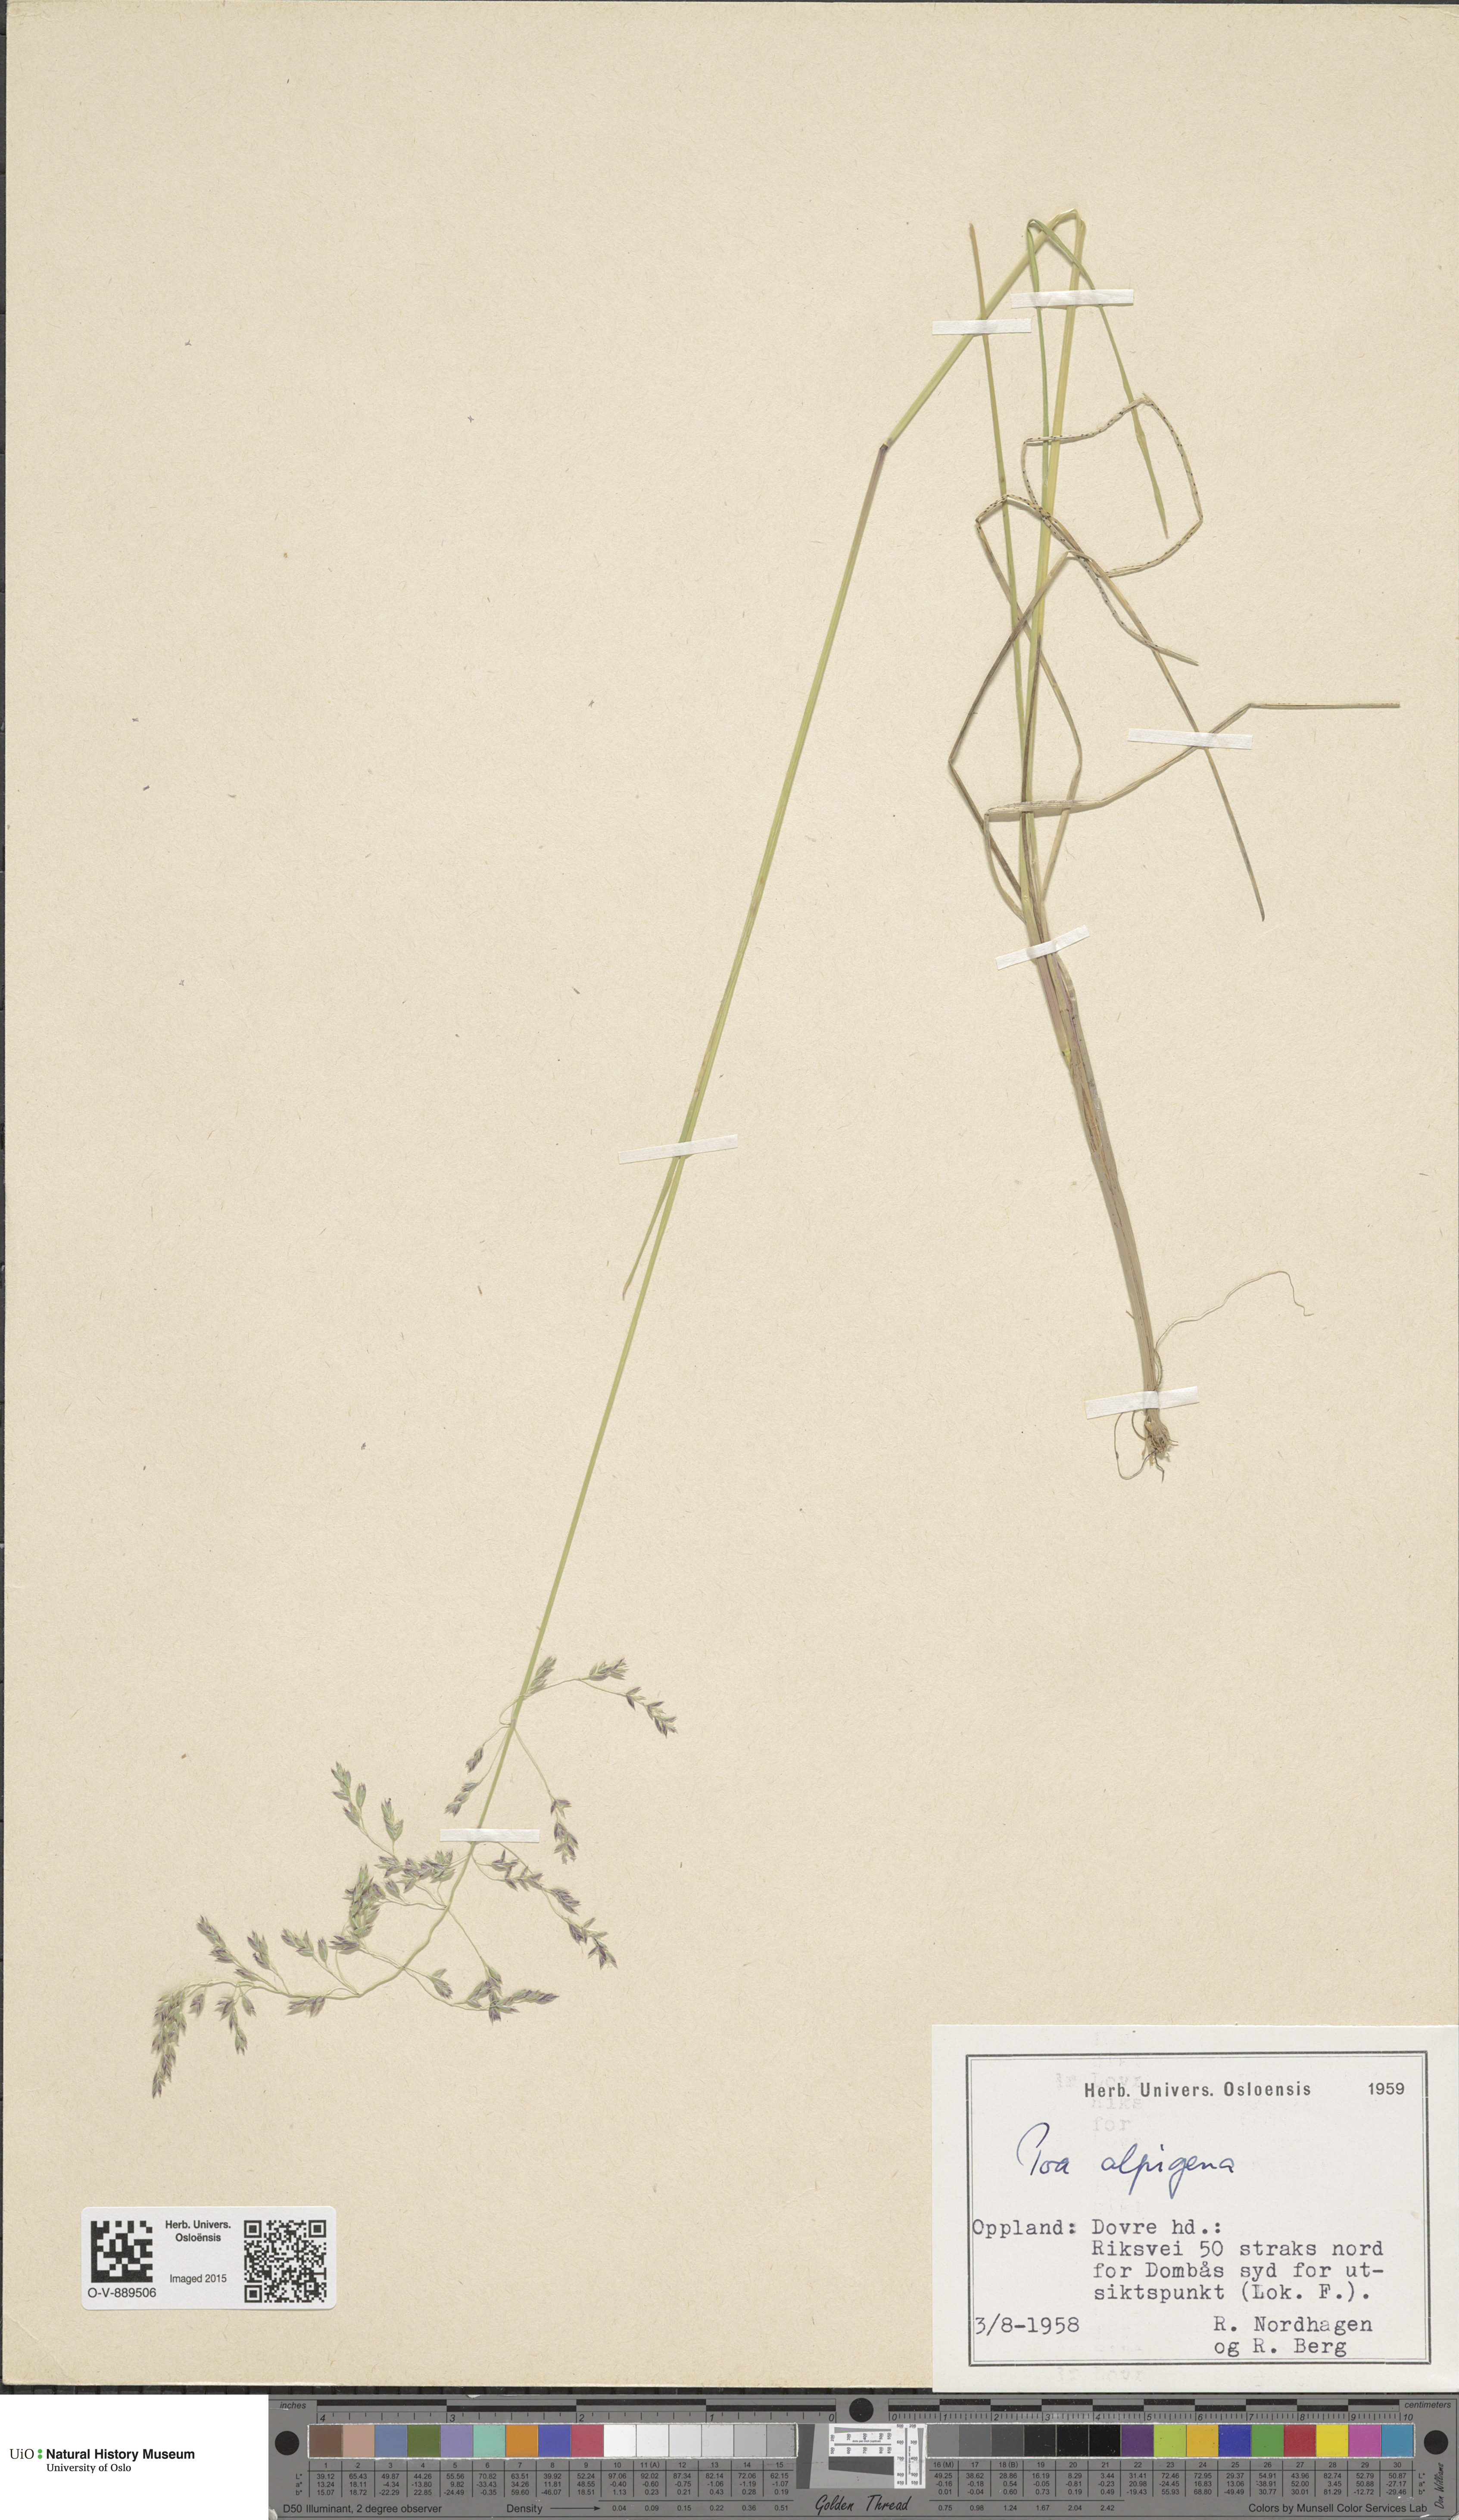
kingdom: Plantae
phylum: Tracheophyta
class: Liliopsida
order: Poales
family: Poaceae
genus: Poa
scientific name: Poa alpigena
